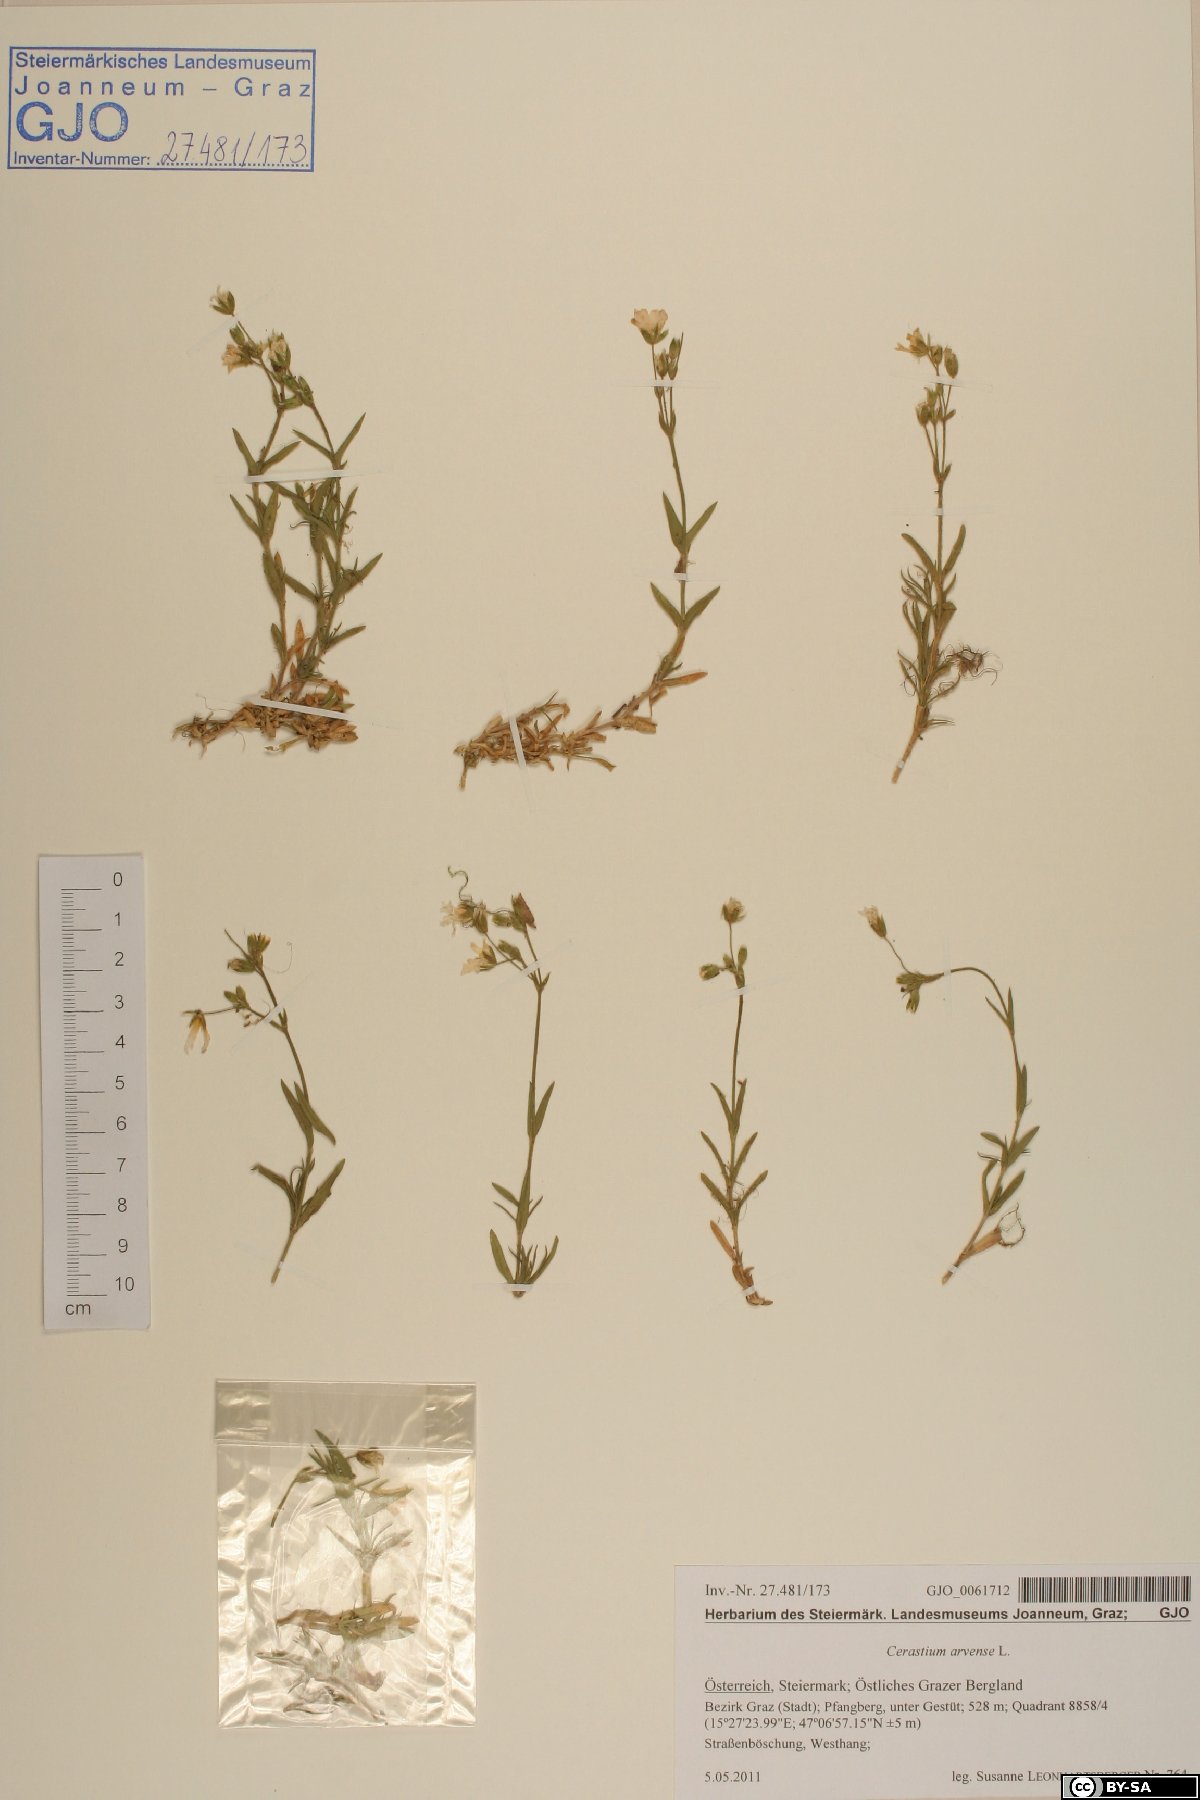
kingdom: Plantae
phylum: Tracheophyta
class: Magnoliopsida
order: Caryophyllales
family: Caryophyllaceae
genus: Cerastium
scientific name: Cerastium arvense
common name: Field mouse-ear
